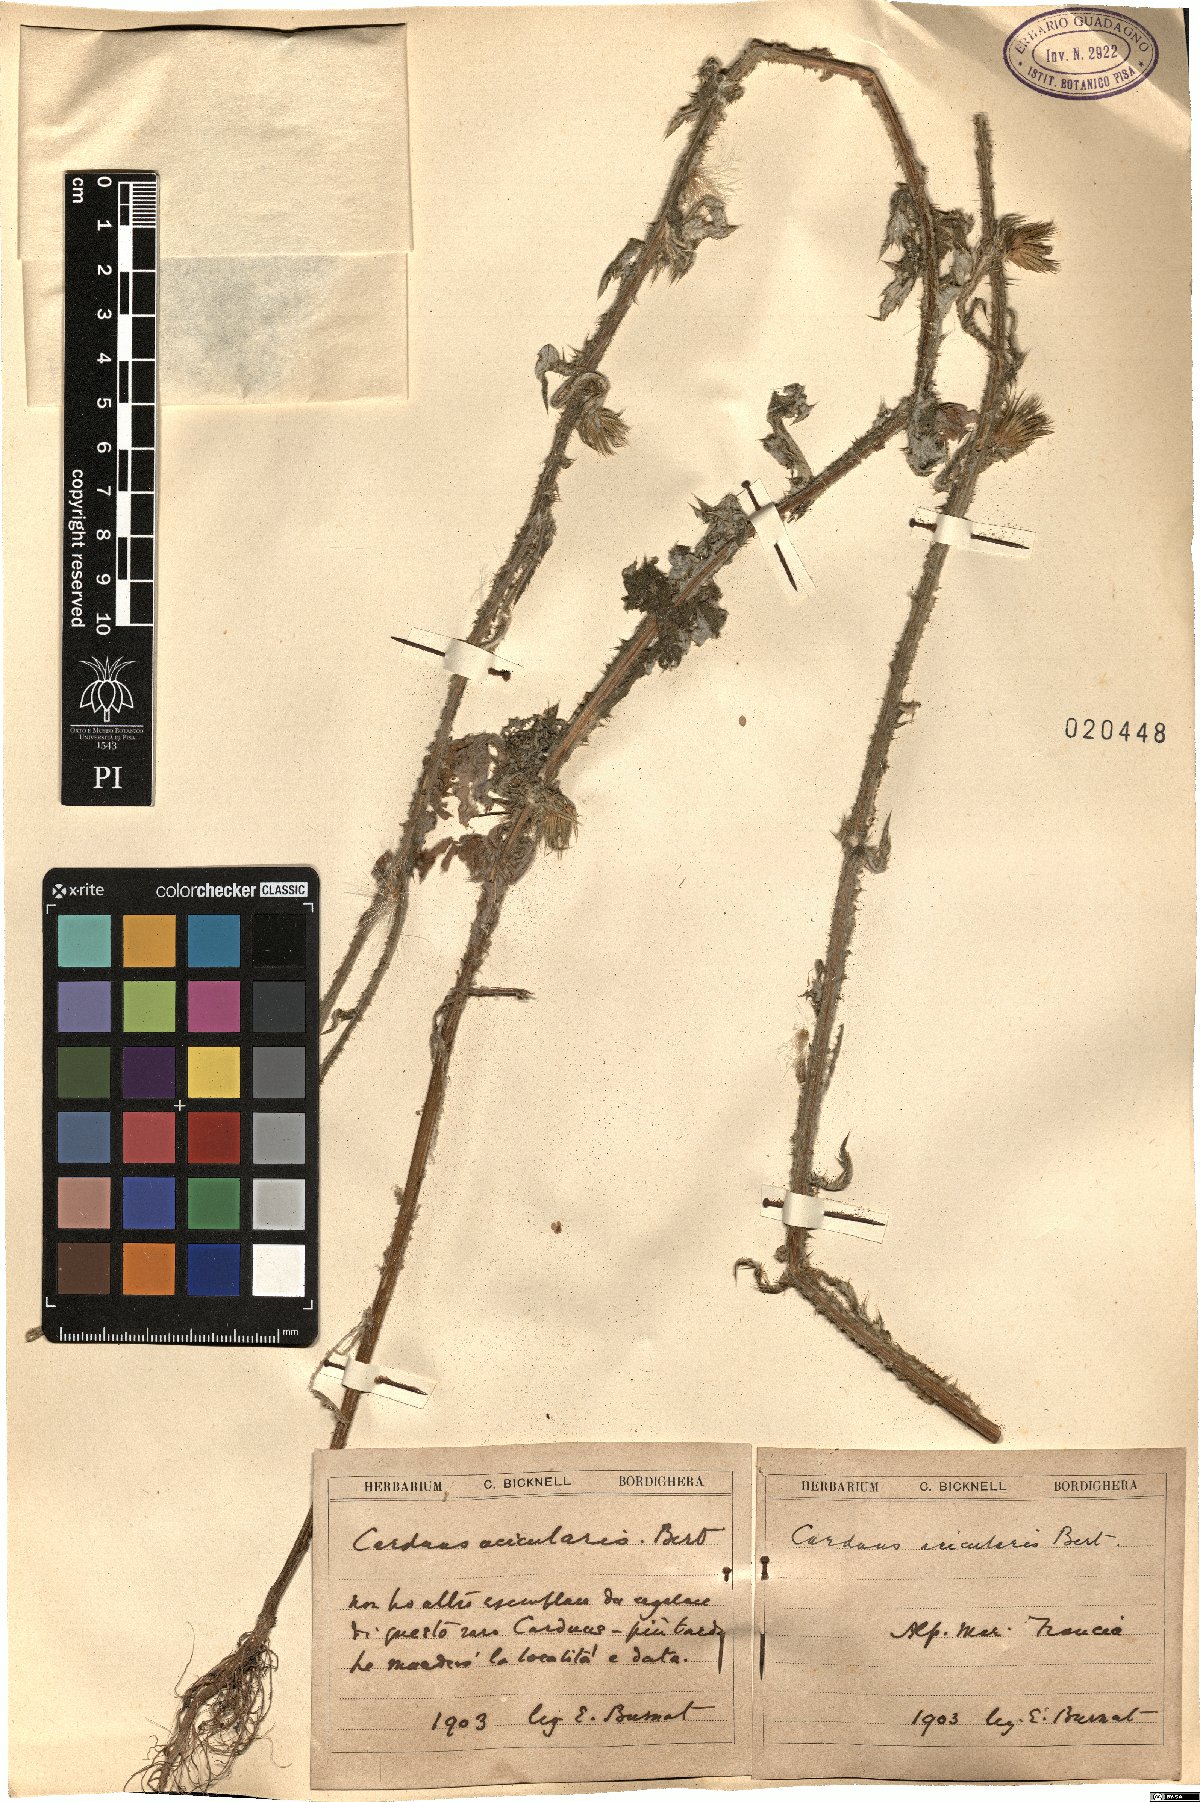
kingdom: Plantae
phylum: Tracheophyta
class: Magnoliopsida
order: Asterales
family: Asteraceae
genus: Carduus
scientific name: Carduus acicularis
